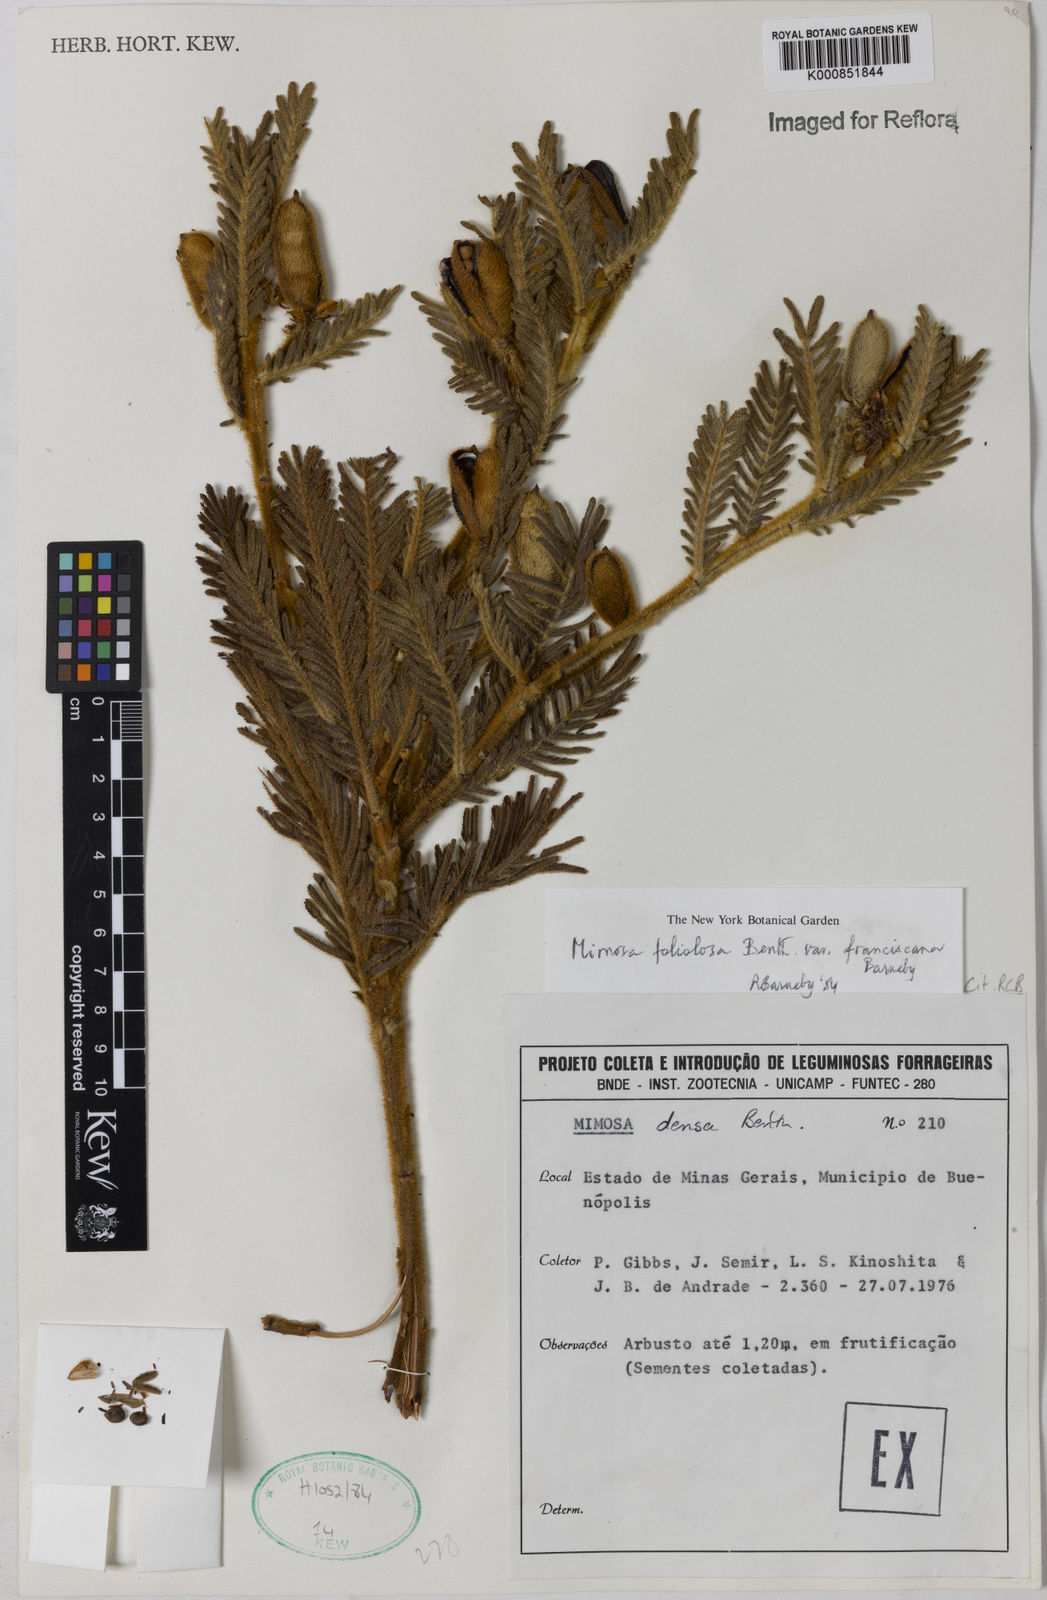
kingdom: Plantae
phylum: Tracheophyta
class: Magnoliopsida
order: Fabales
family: Fabaceae
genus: Mimosa
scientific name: Mimosa foliolosa
